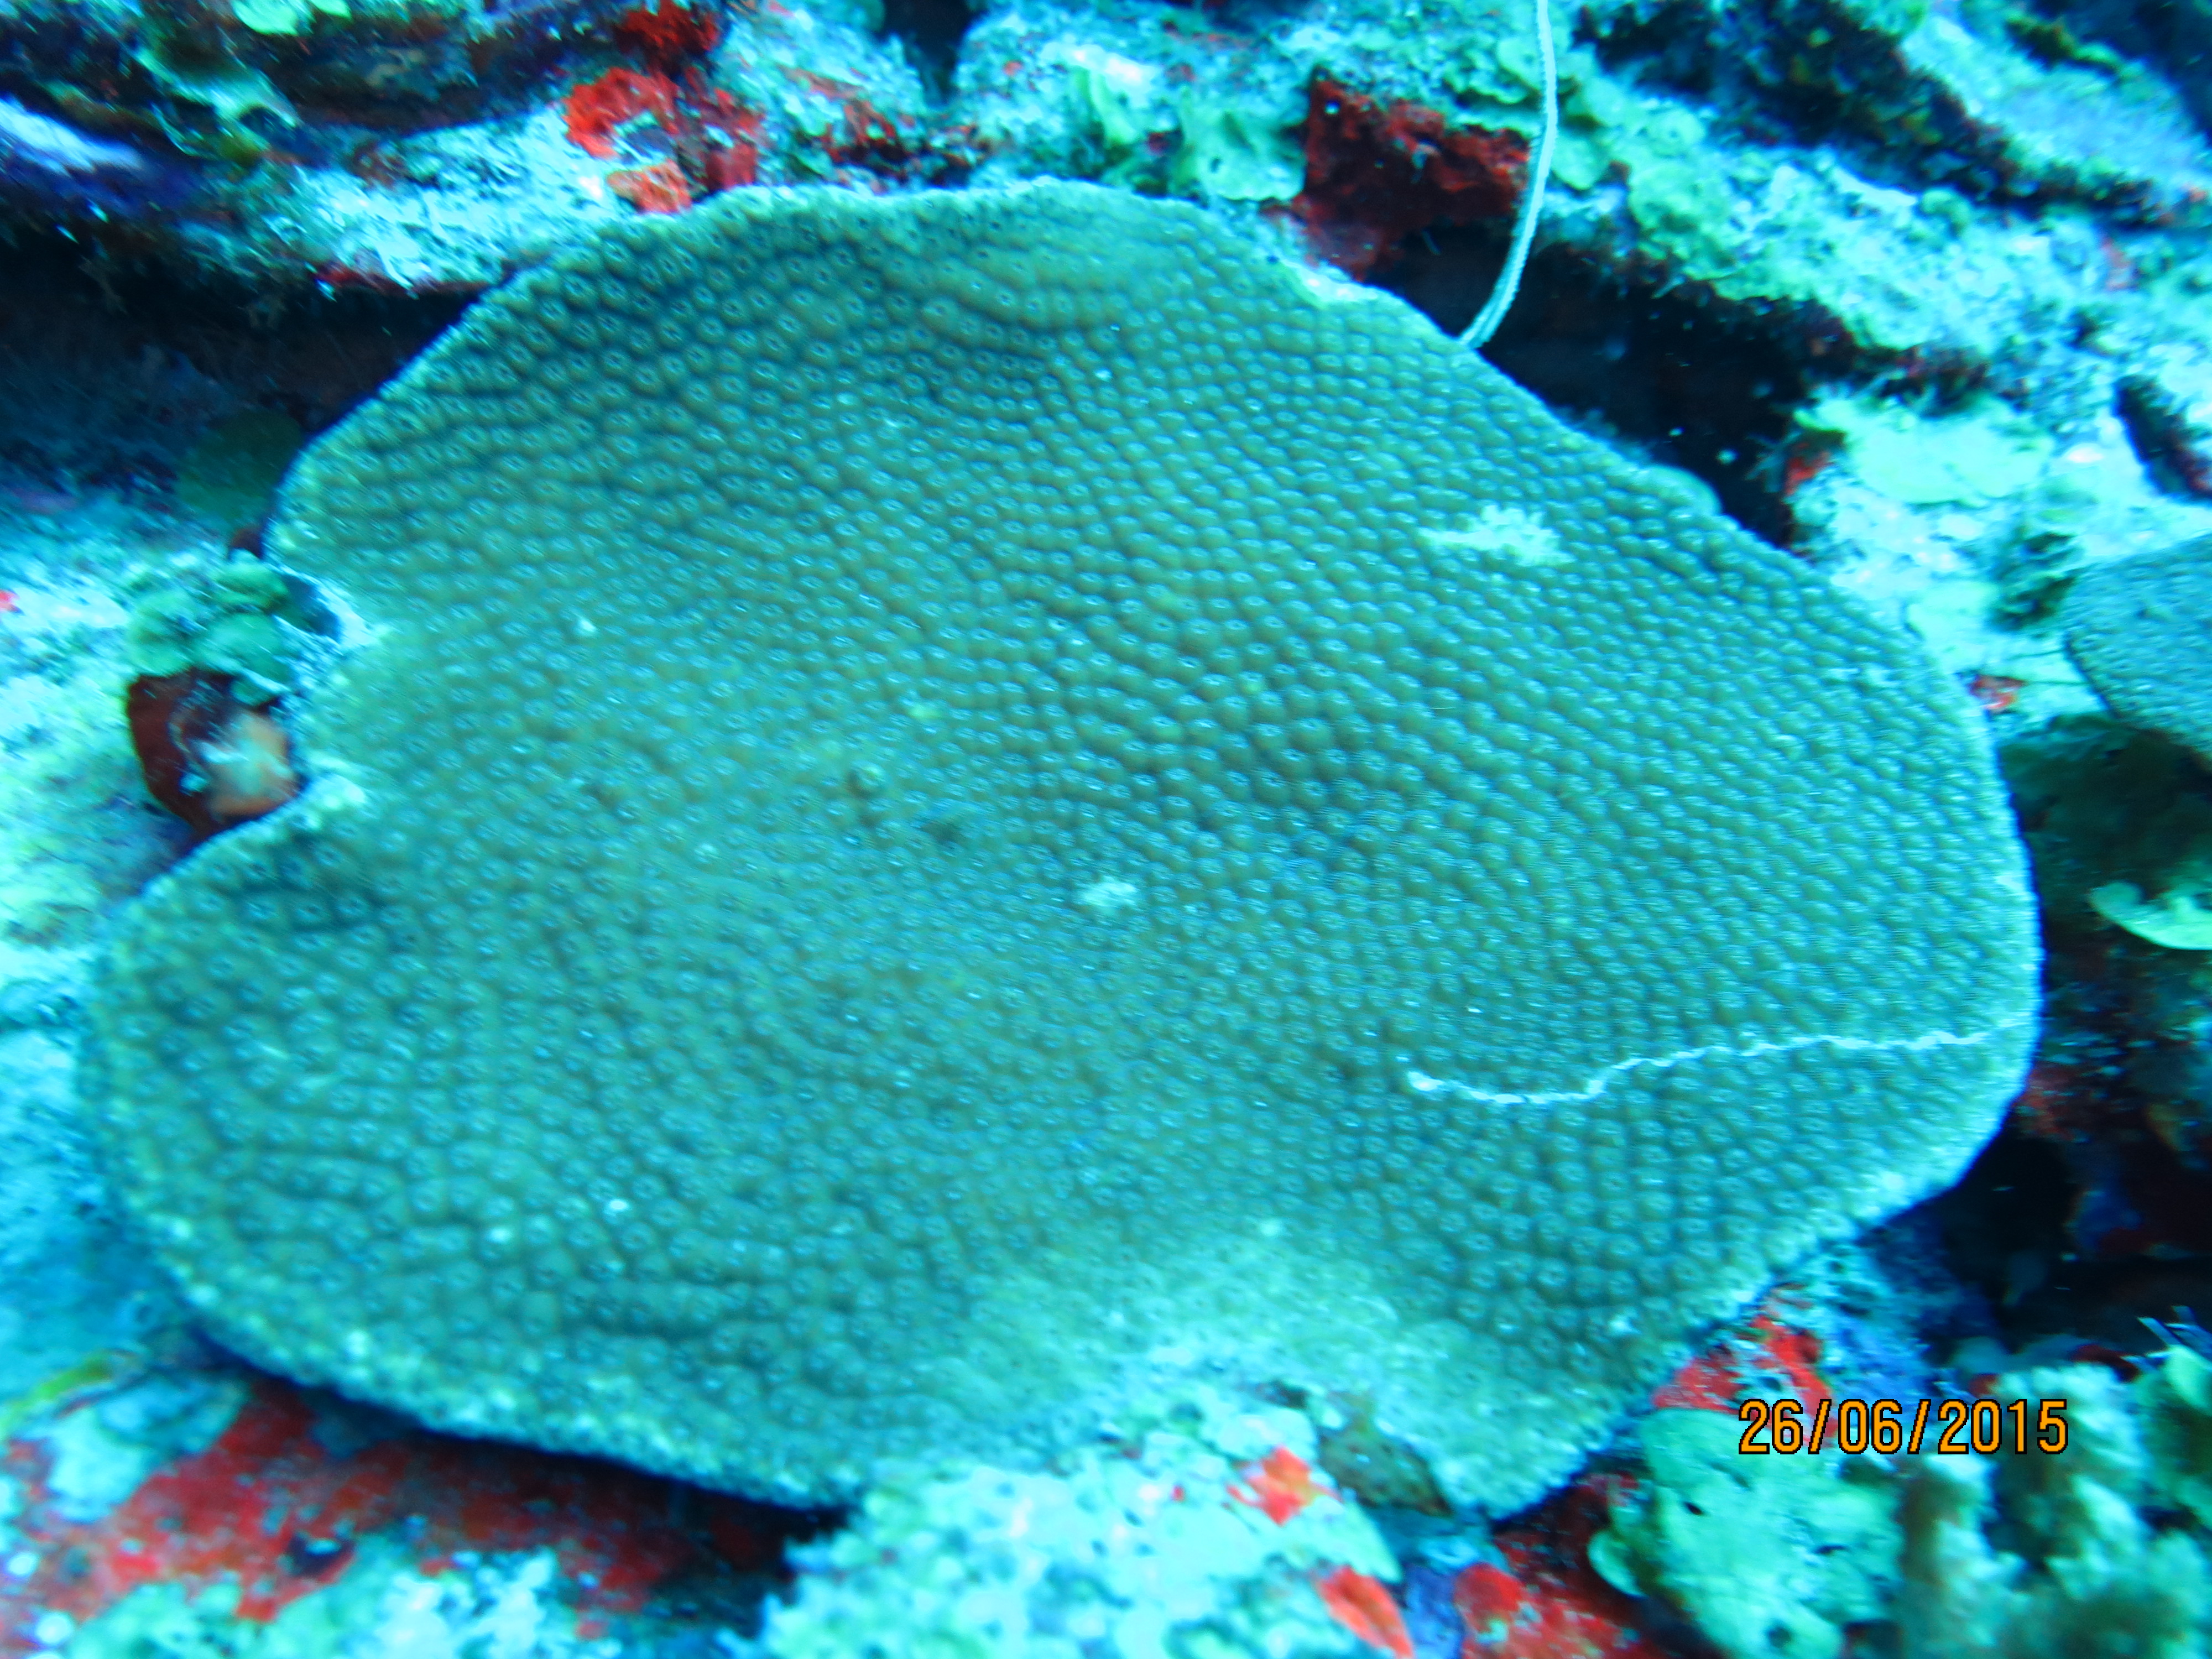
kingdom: Animalia
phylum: Cnidaria
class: Anthozoa
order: Scleractinia
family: Merulinidae
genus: Orbicella
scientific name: Orbicella faveolata
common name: Mountainous star coral
